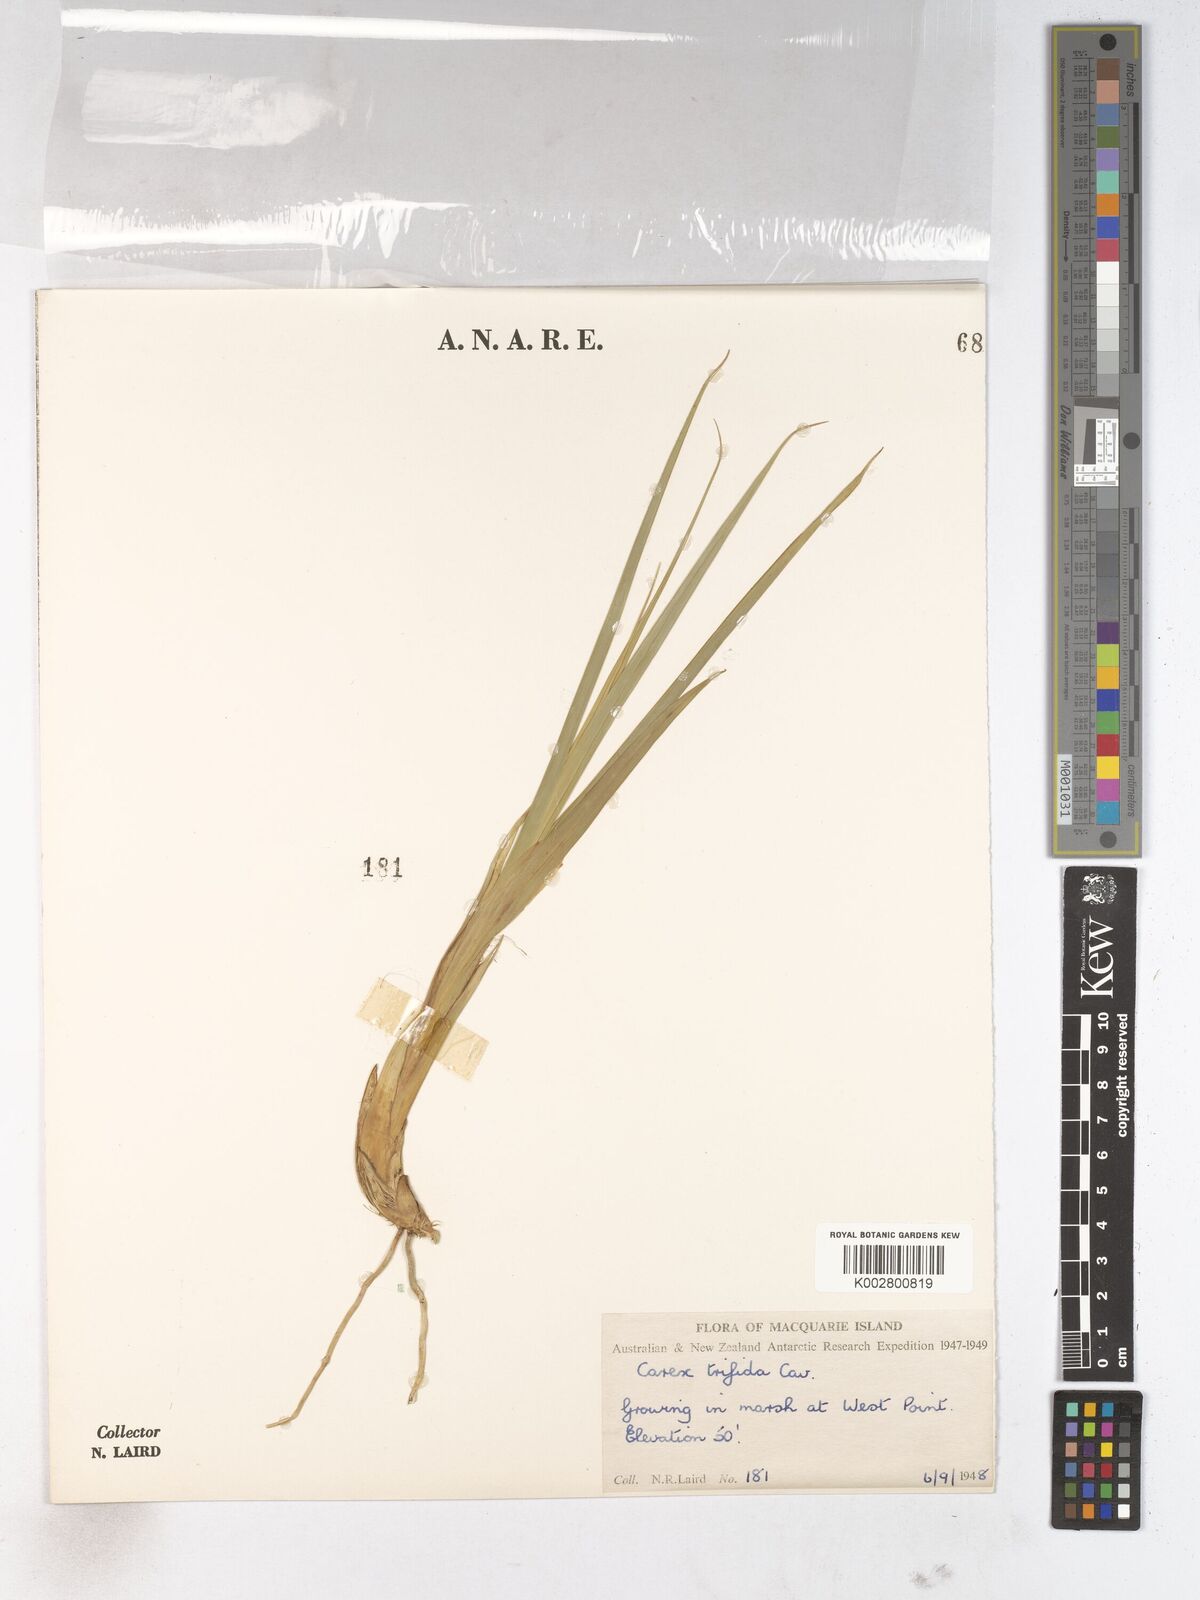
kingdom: Plantae
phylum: Tracheophyta
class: Liliopsida
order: Poales
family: Cyperaceae
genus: Carex
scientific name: Carex trifida
